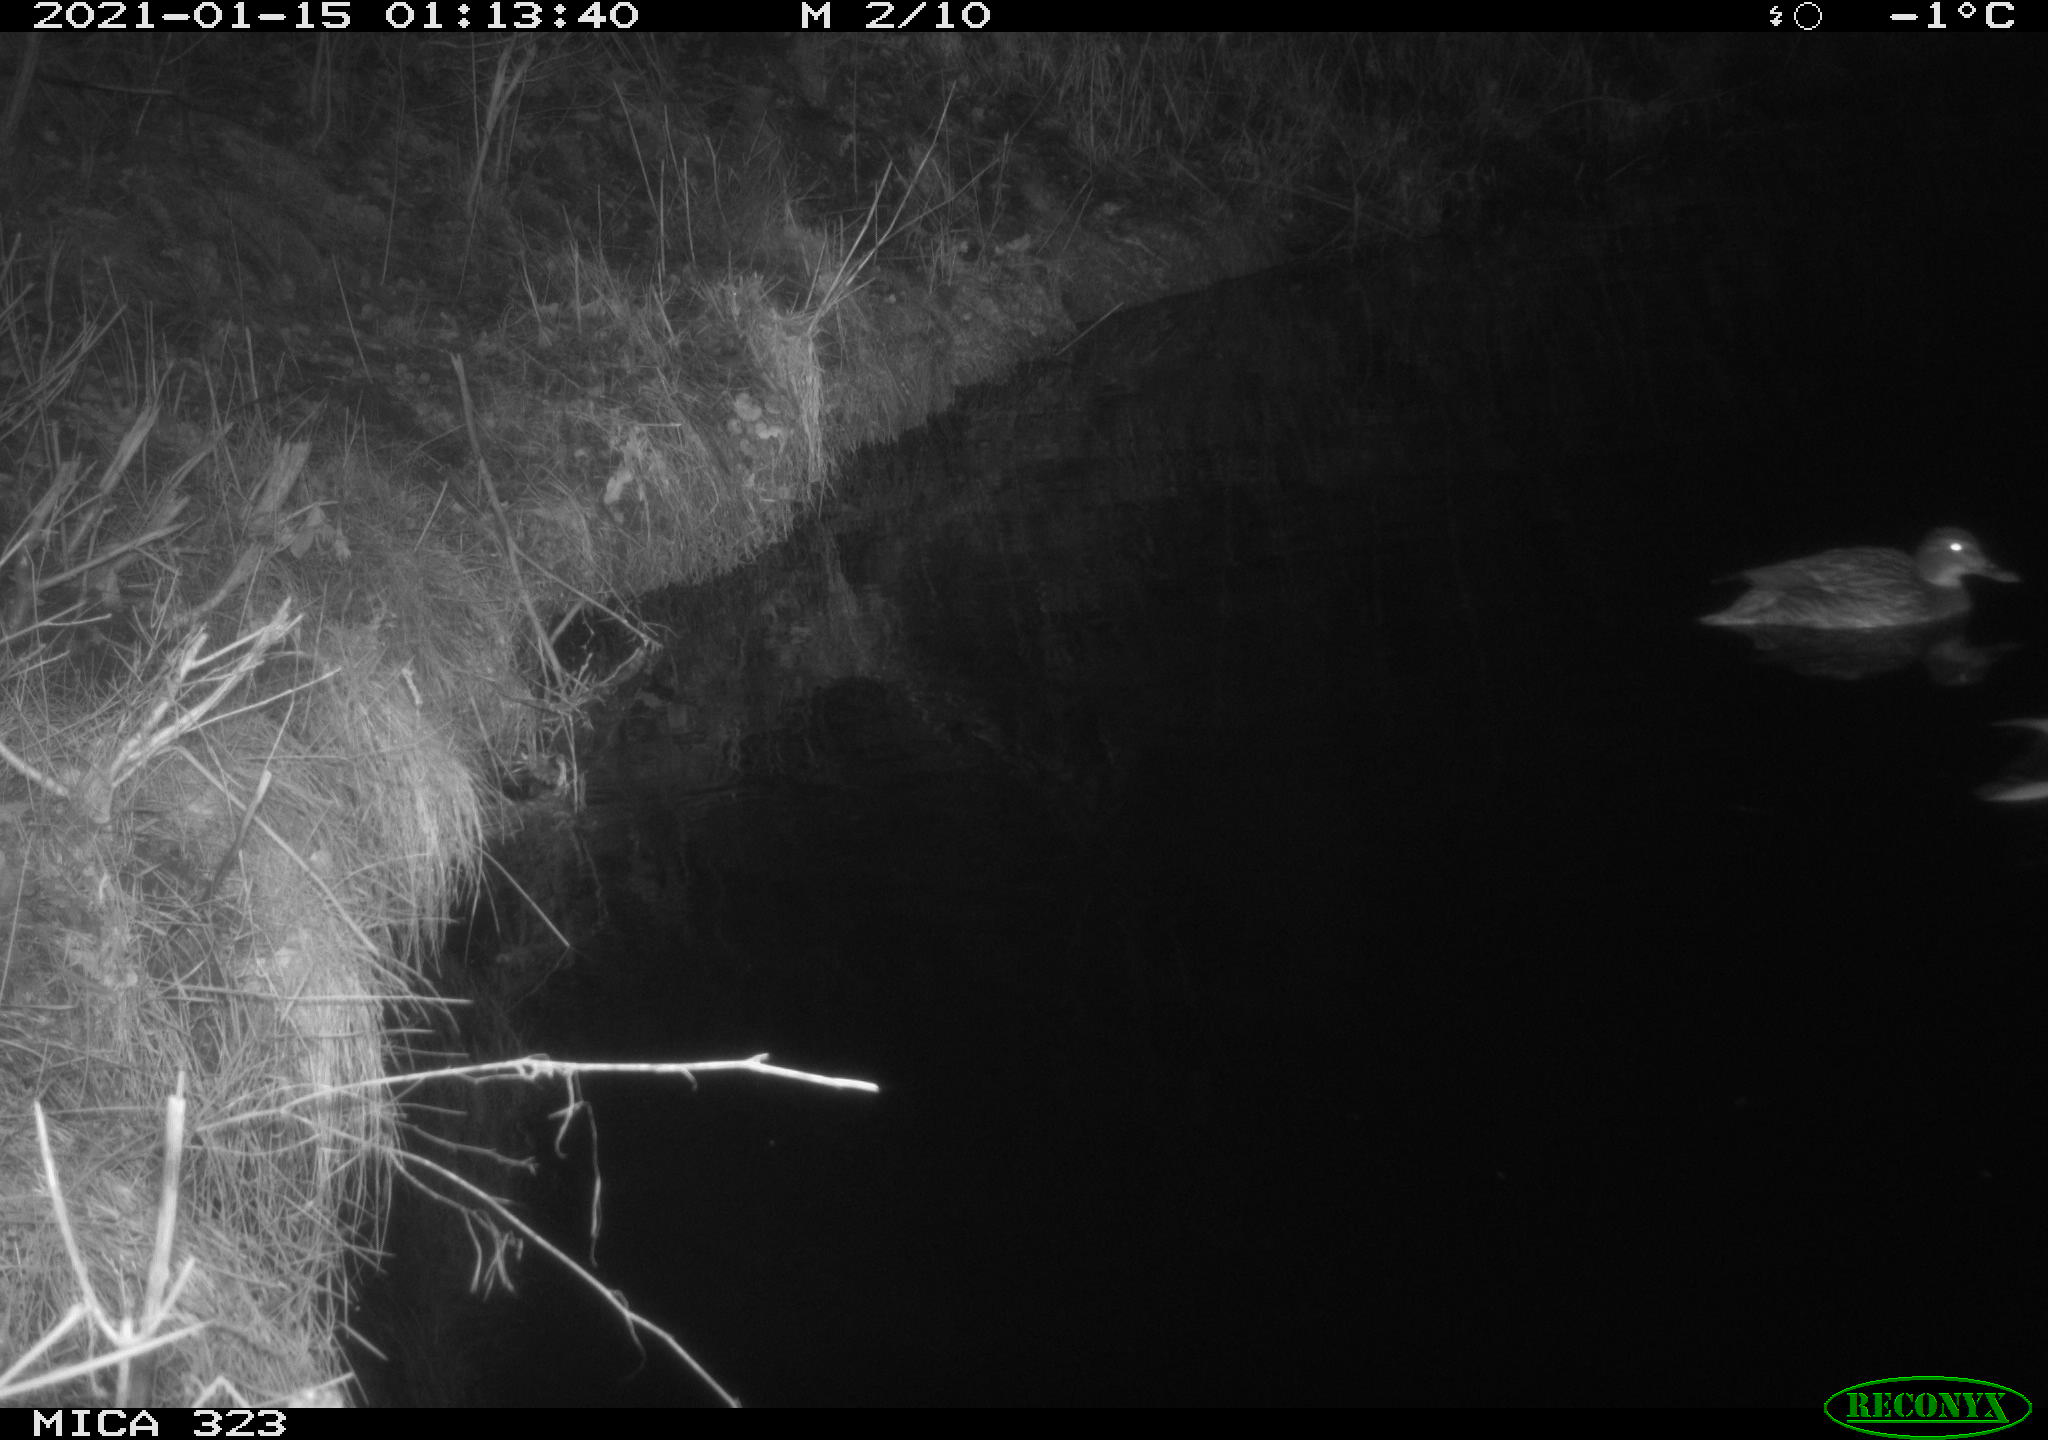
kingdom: Animalia
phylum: Chordata
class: Aves
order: Anseriformes
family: Anatidae
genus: Anas
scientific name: Anas platyrhynchos
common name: Mallard
